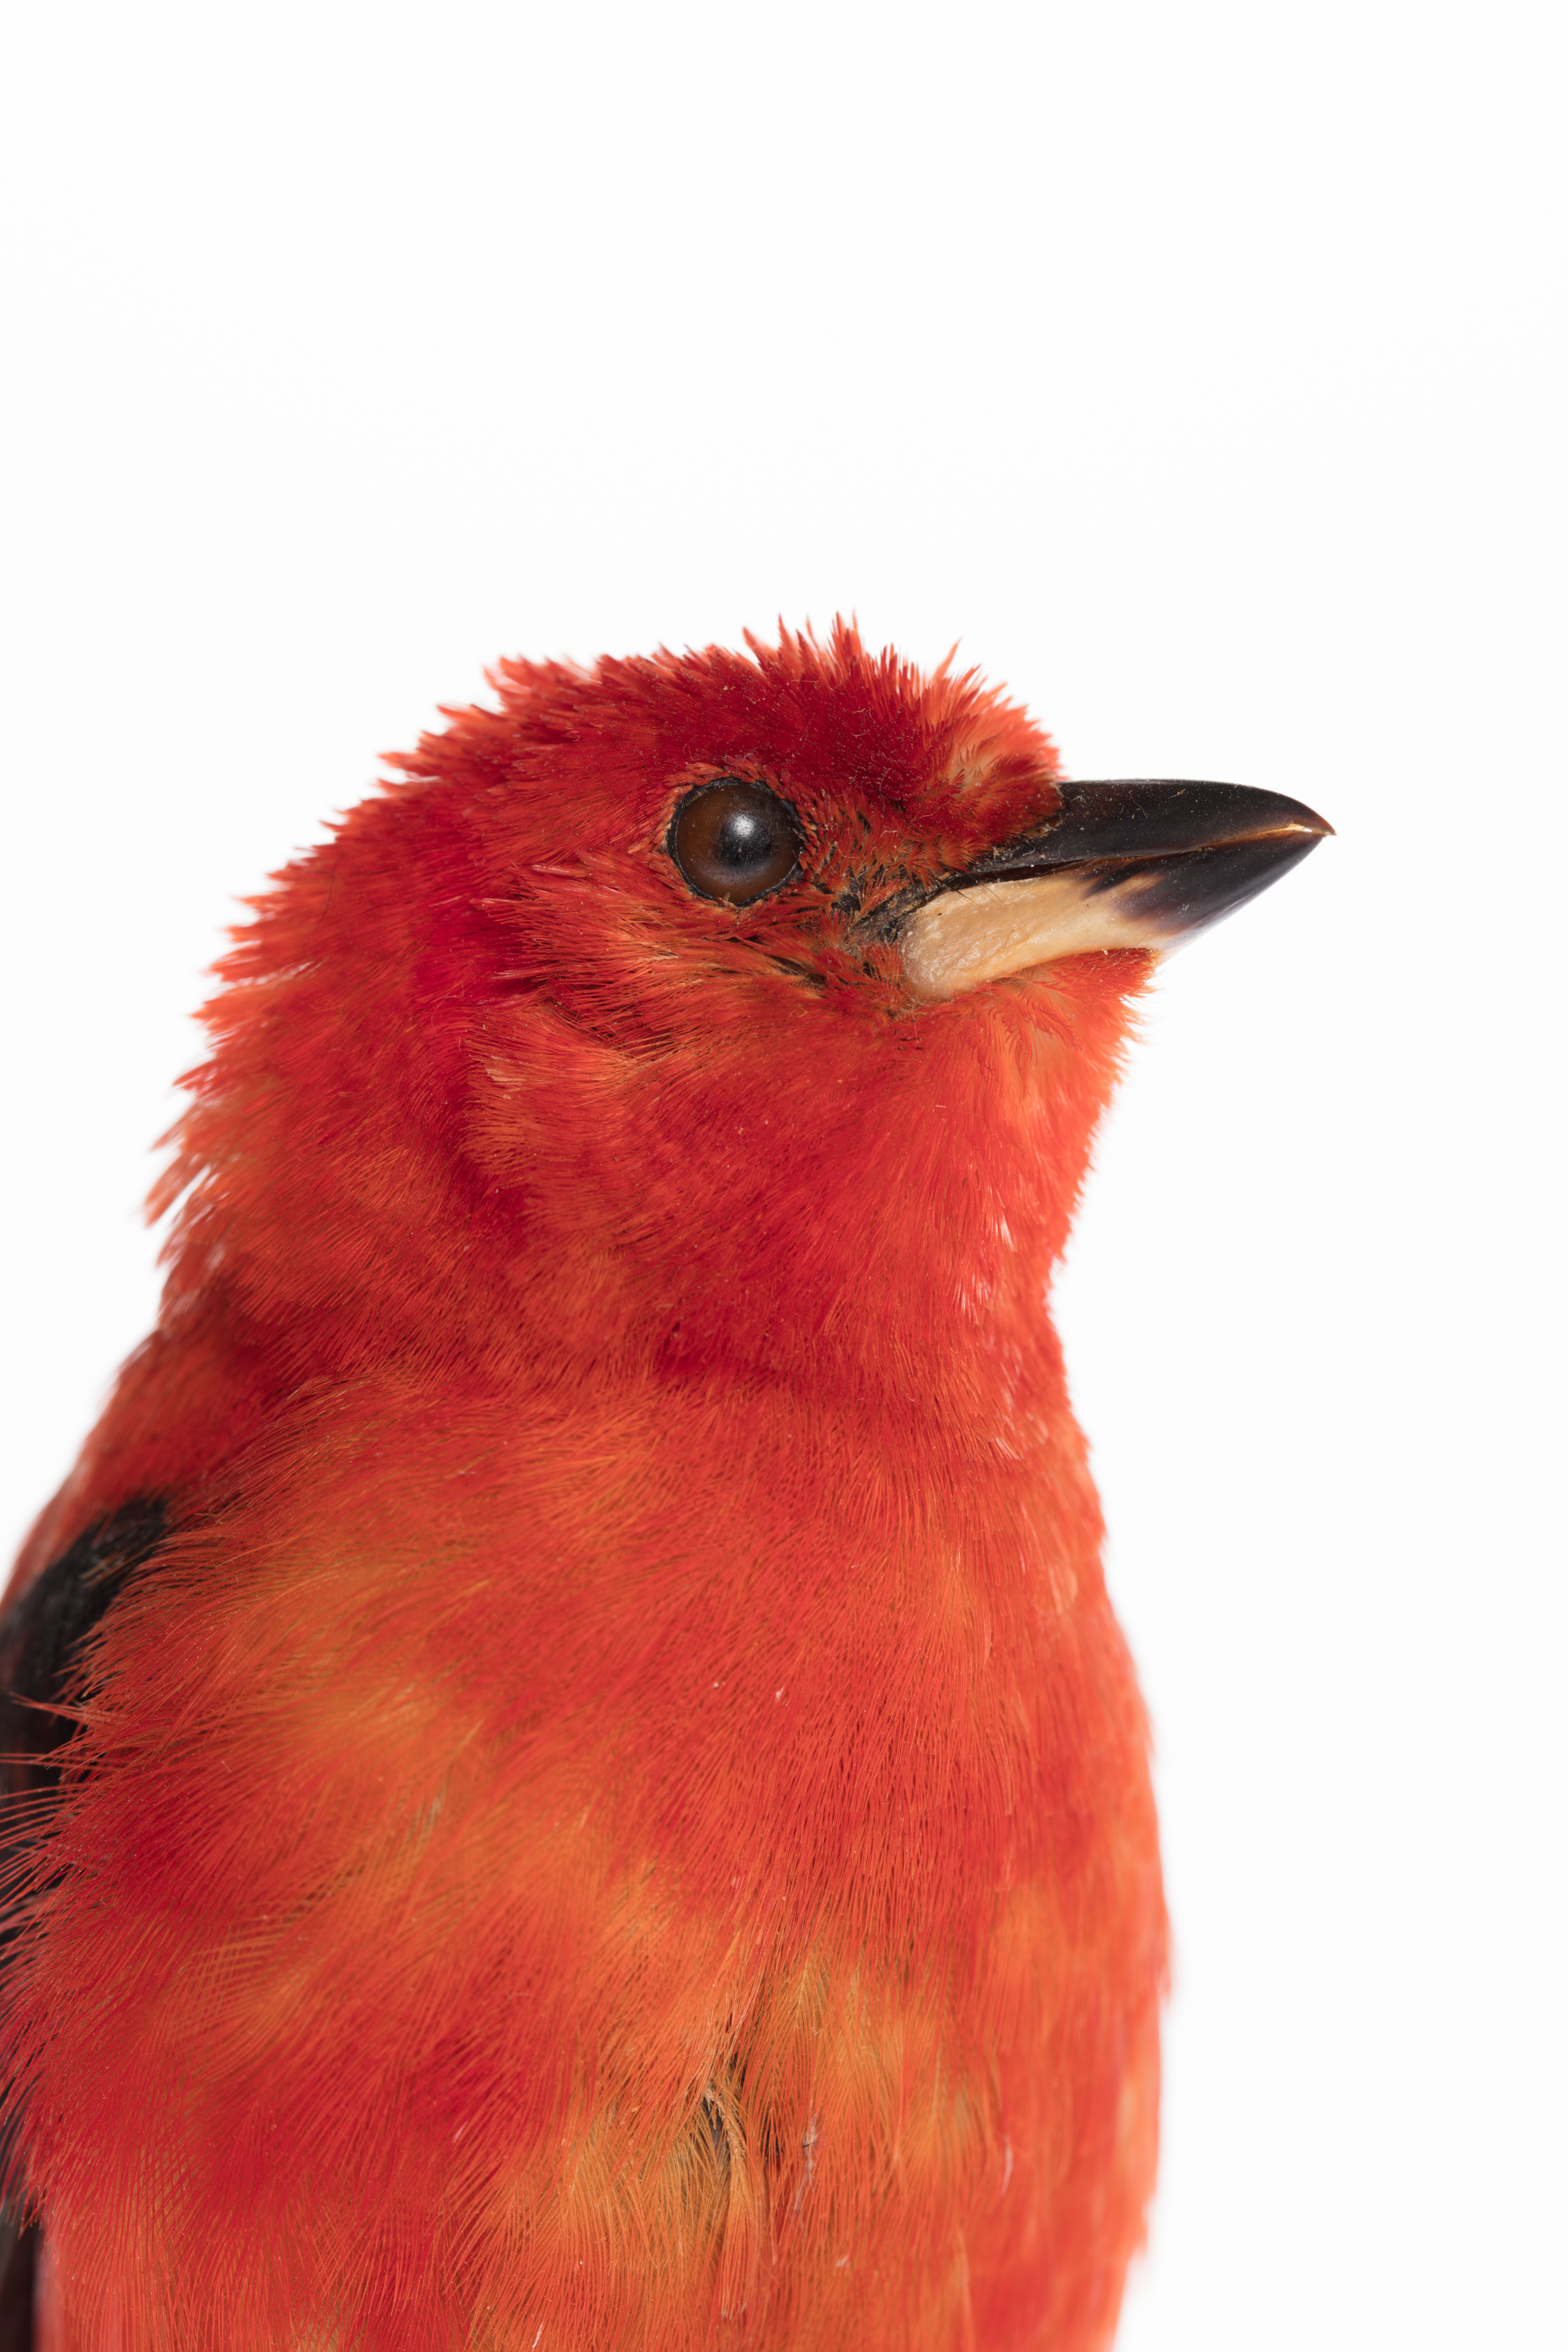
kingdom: Animalia
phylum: Chordata
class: Aves
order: Passeriformes
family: Thraupidae
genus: Ramphocelus
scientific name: Ramphocelus bresilia
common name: Brazilian tanager
